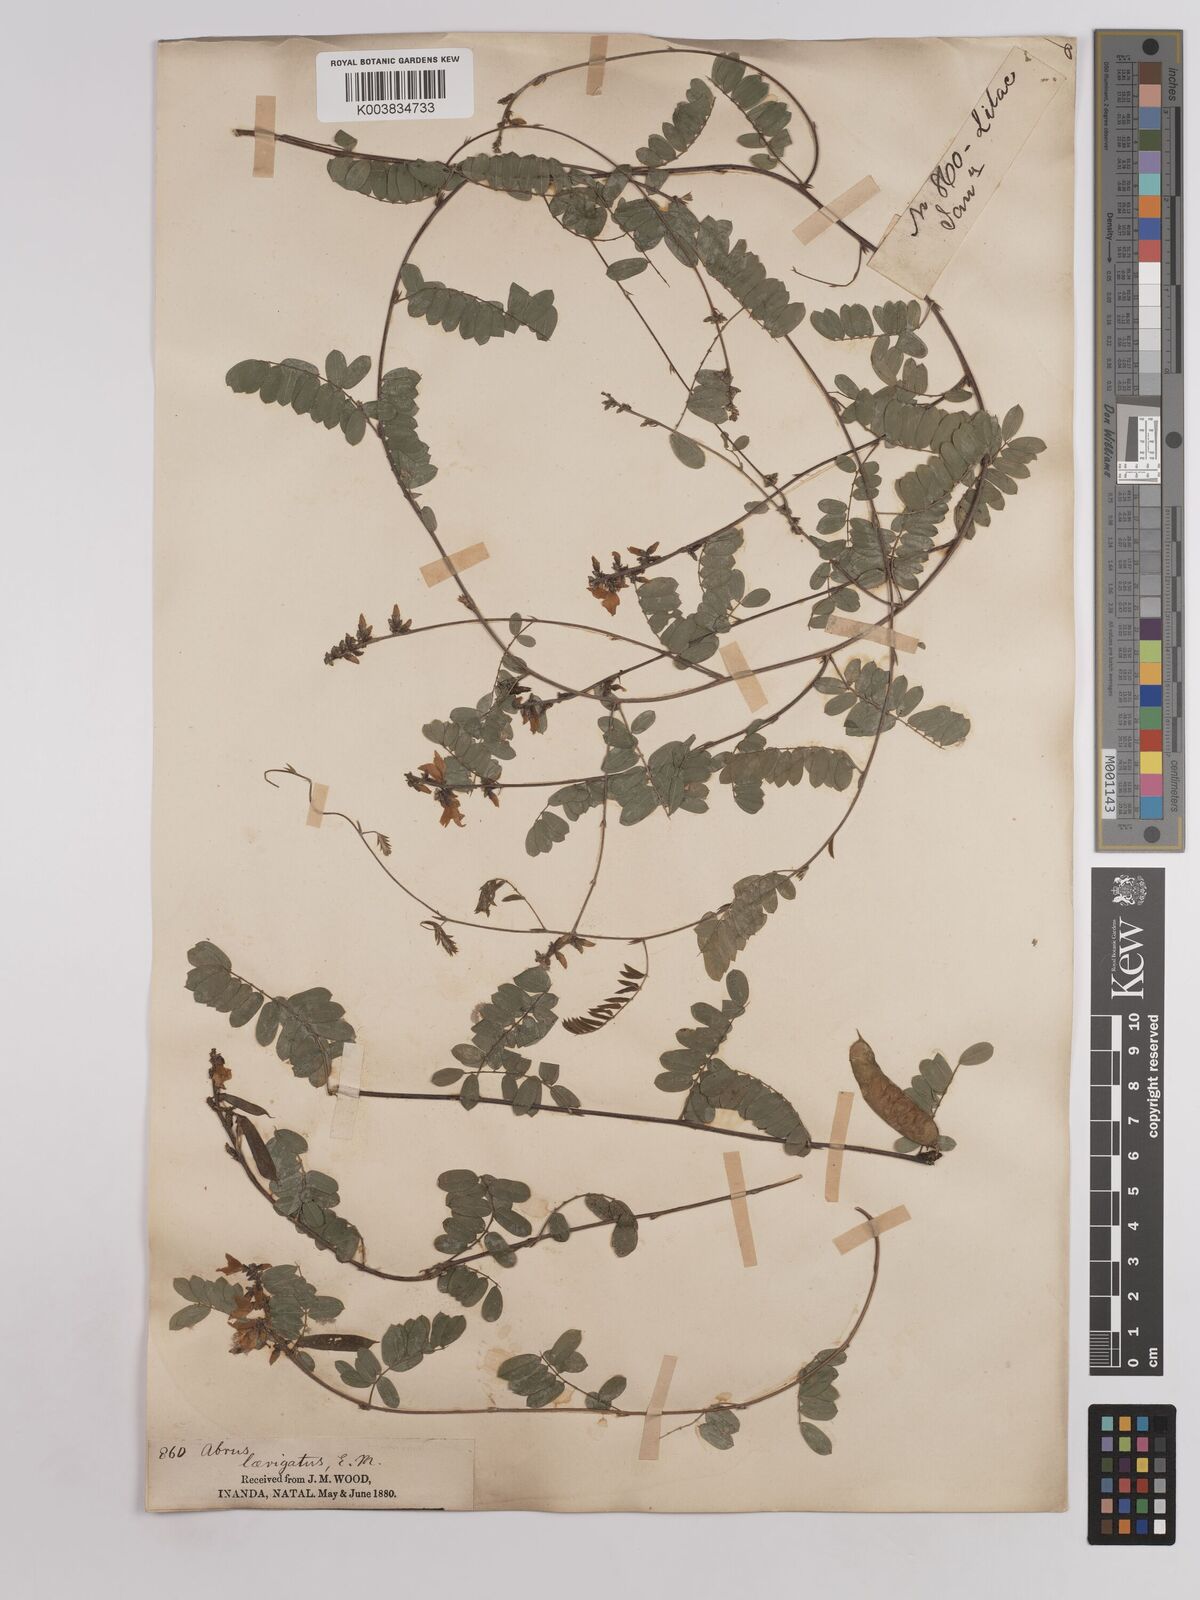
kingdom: Plantae
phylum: Tracheophyta
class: Magnoliopsida
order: Fabales
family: Fabaceae
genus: Abrus
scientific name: Abrus laevigatus
